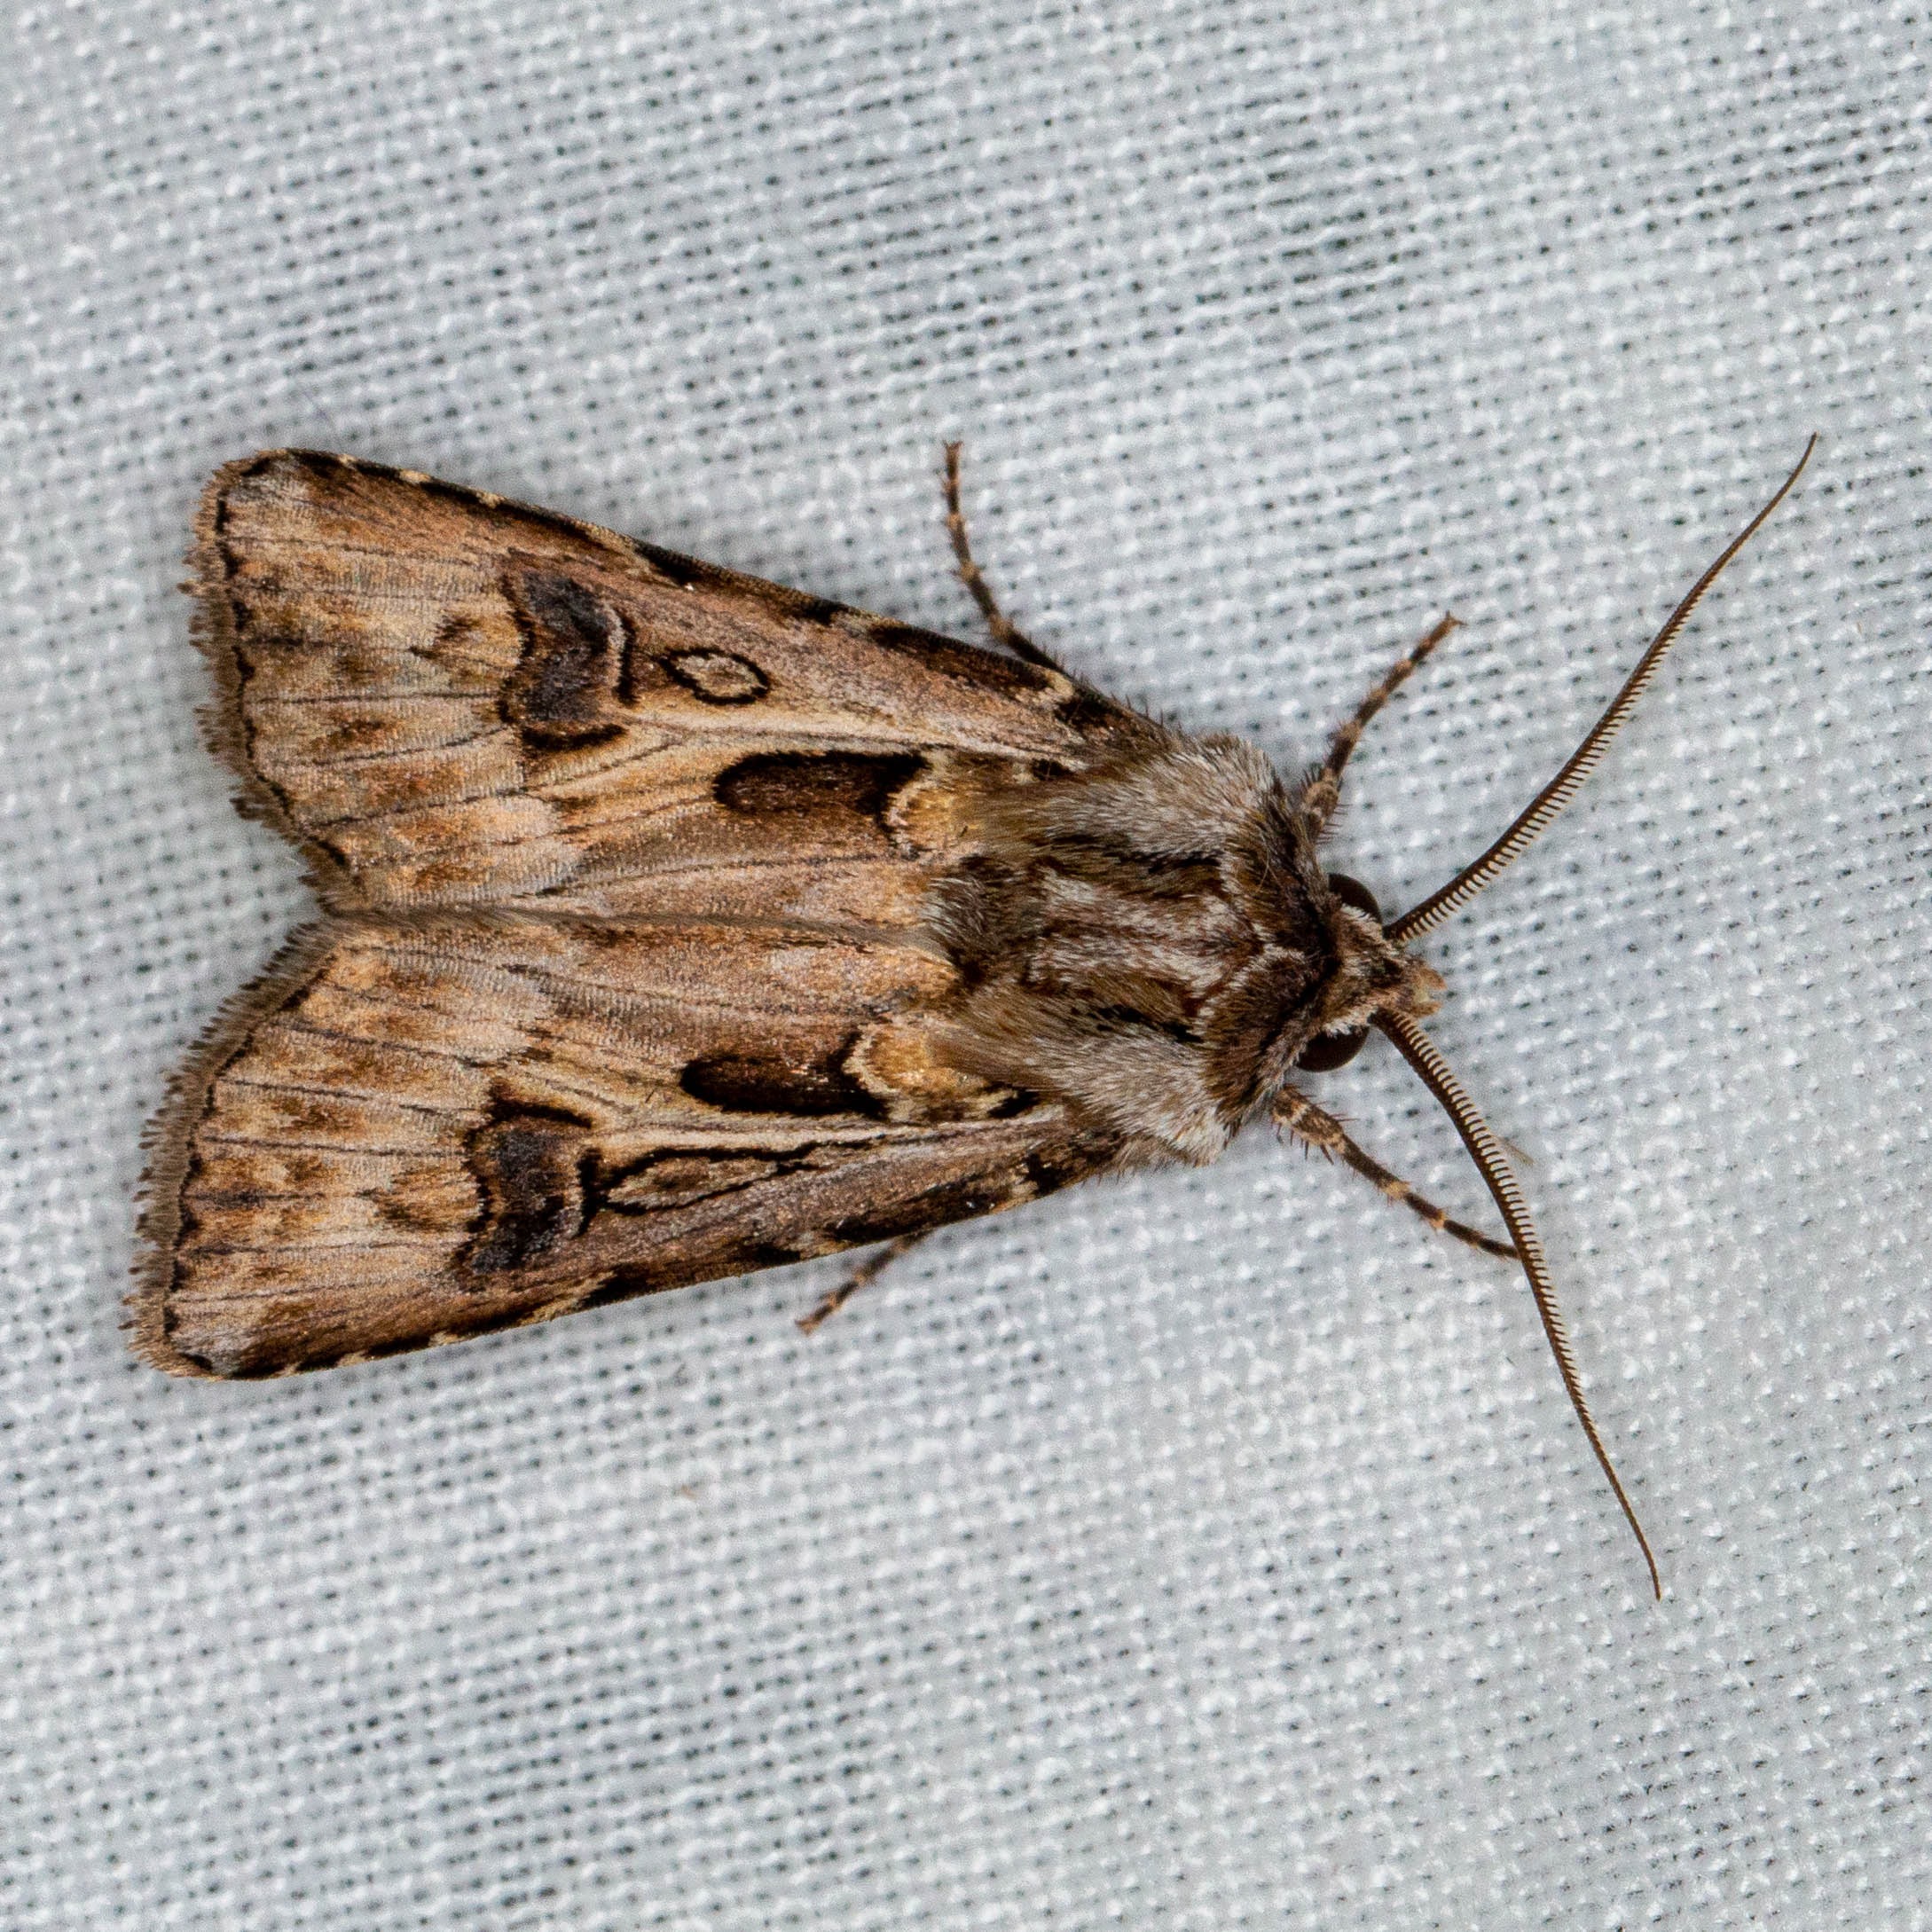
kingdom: Animalia
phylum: Arthropoda
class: Insecta
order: Lepidoptera
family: Noctuidae
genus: Agrotis
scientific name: Agrotis vestigialis
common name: Strand-landmand
